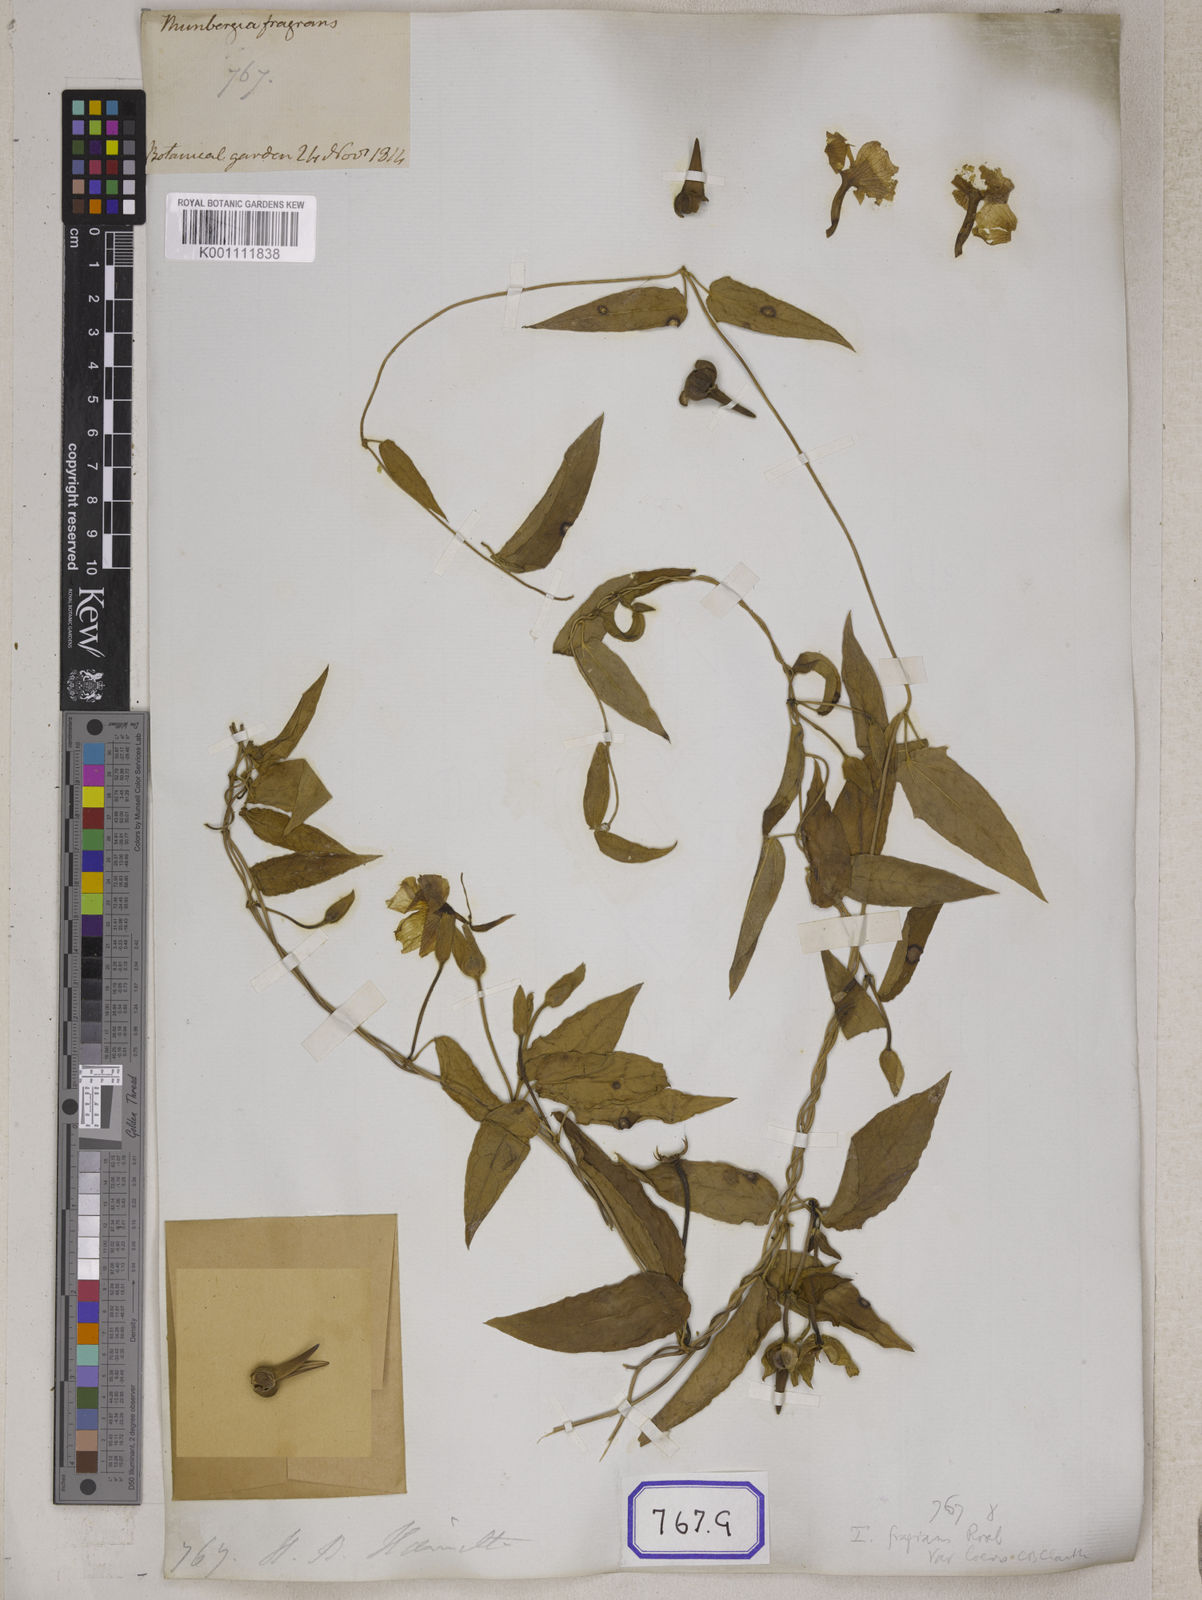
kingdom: Plantae
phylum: Tracheophyta
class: Magnoliopsida
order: Lamiales
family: Acanthaceae
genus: Thunbergia
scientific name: Thunbergia fragrans
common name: Whitelady
